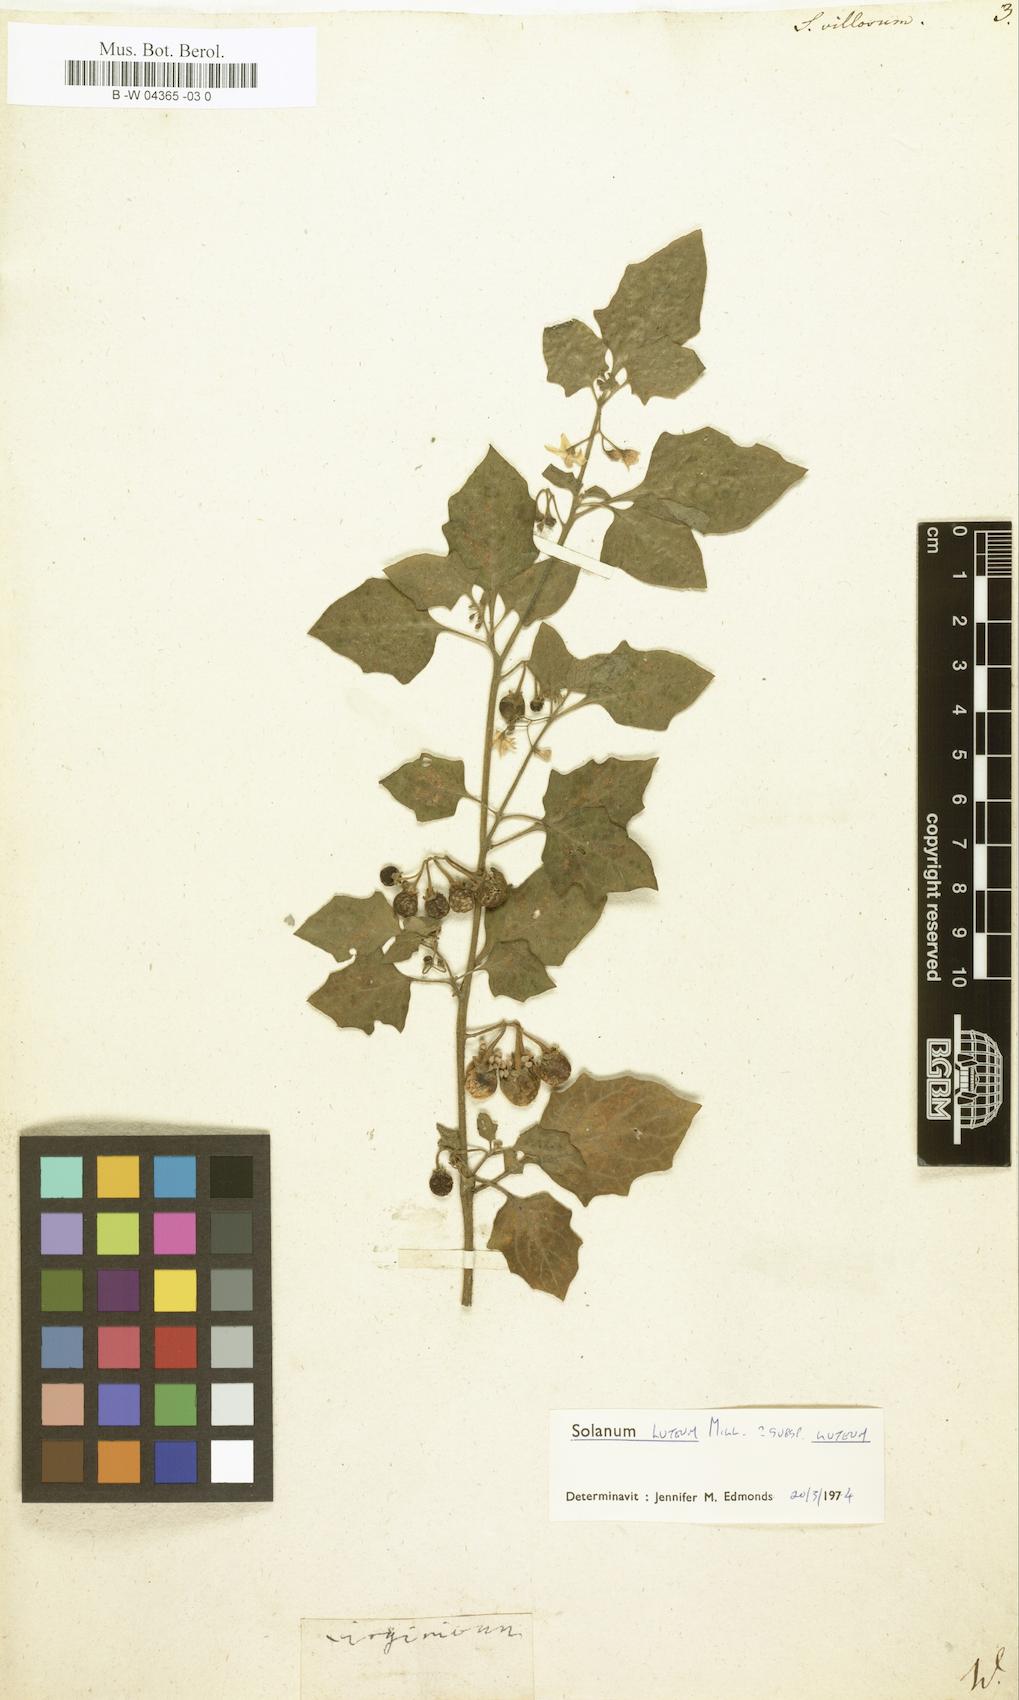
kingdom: Plantae
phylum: Tracheophyta
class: Magnoliopsida
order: Solanales
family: Solanaceae
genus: Solanum
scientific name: Solanum villosum
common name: Red nightshade
